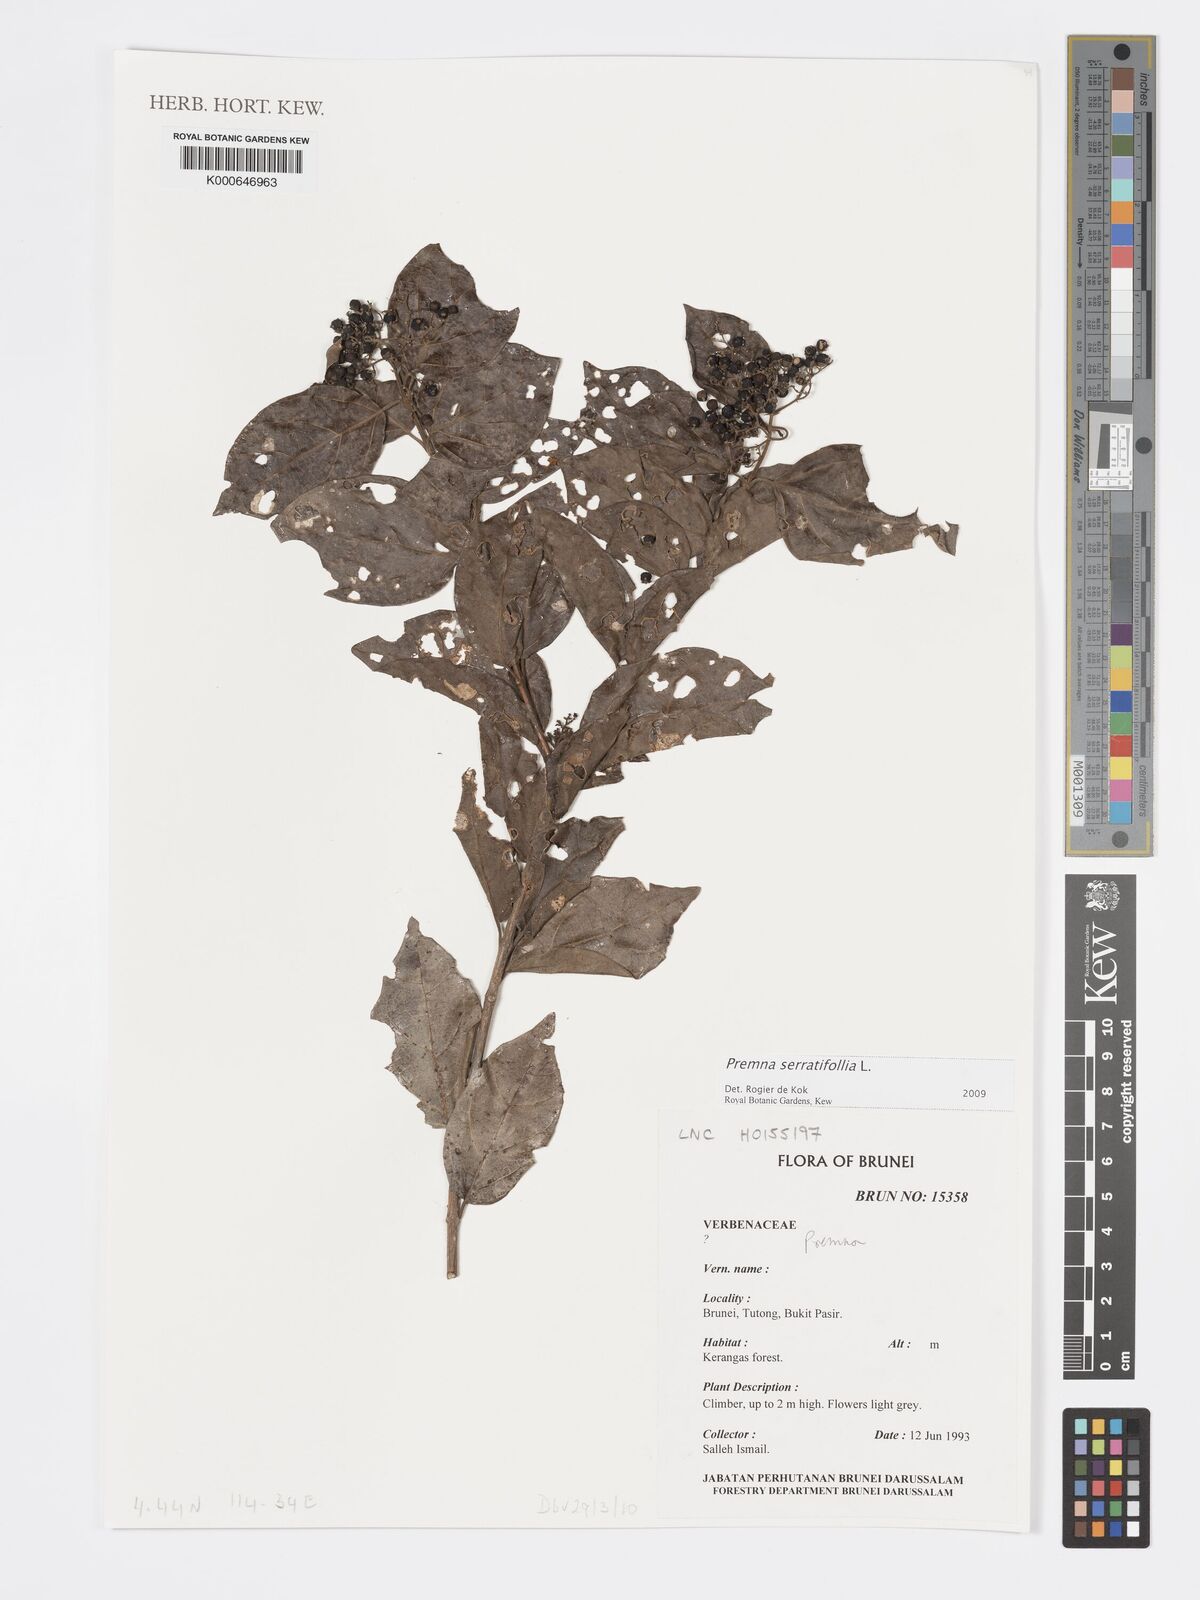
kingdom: Plantae
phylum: Tracheophyta
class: Magnoliopsida
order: Lamiales
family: Lamiaceae
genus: Premna
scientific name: Premna serratifolia
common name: Bastard guelder
